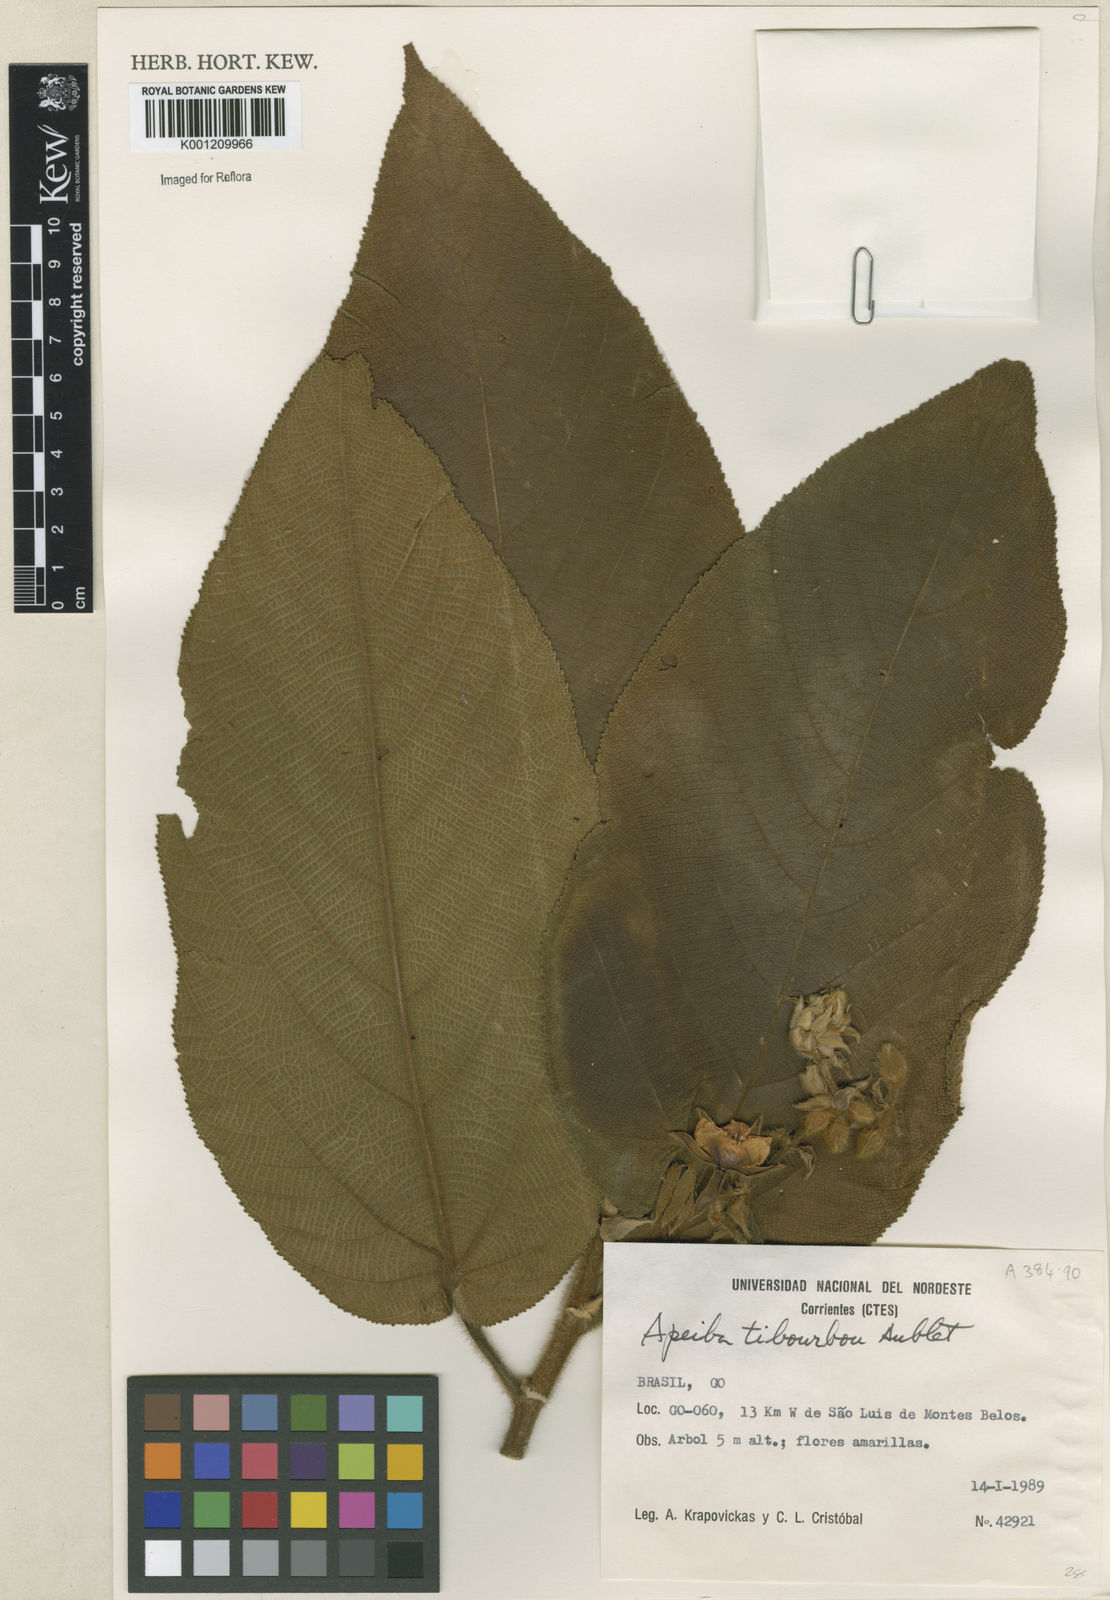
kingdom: Plantae
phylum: Tracheophyta
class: Magnoliopsida
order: Malvales
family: Malvaceae
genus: Apeiba
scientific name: Apeiba tibourbou
